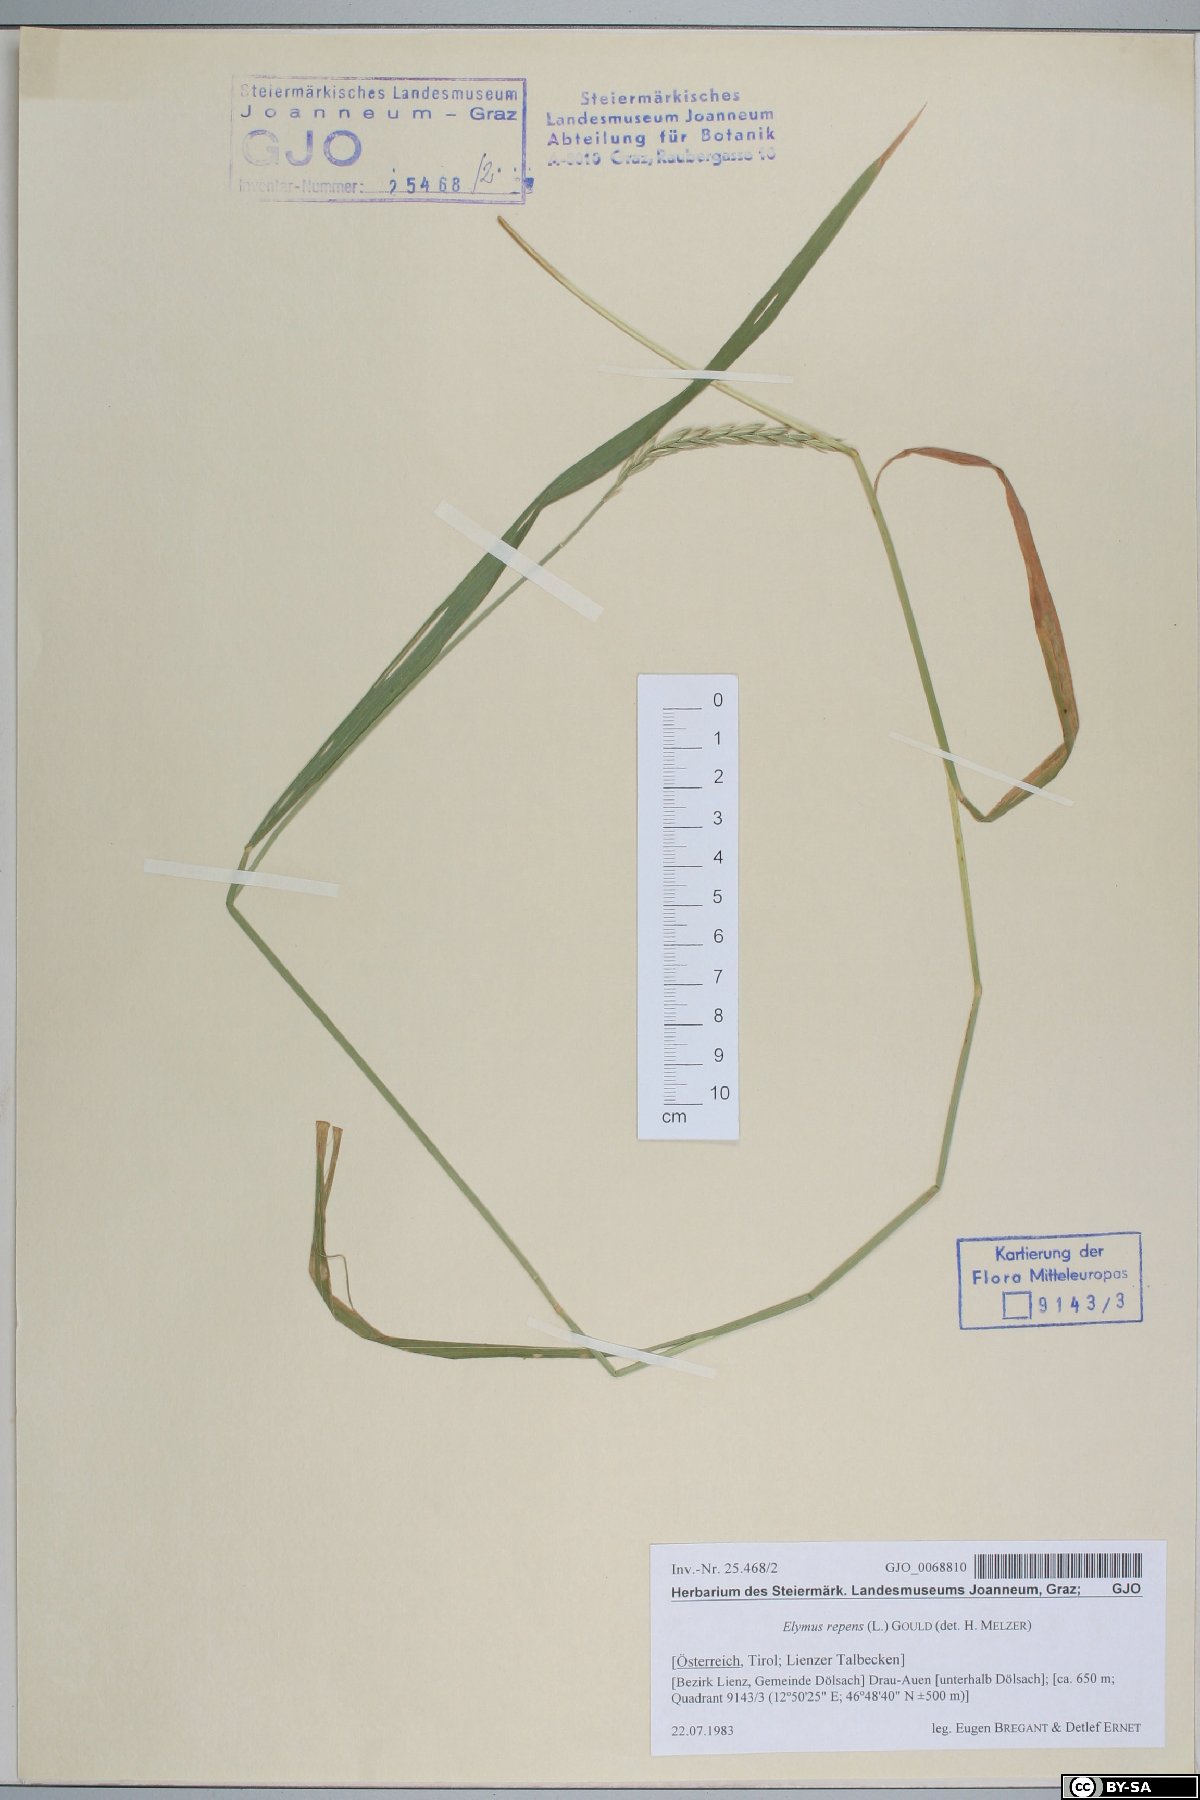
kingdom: Plantae
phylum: Tracheophyta
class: Liliopsida
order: Poales
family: Poaceae
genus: Elymus
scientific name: Elymus repens
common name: Quackgrass
